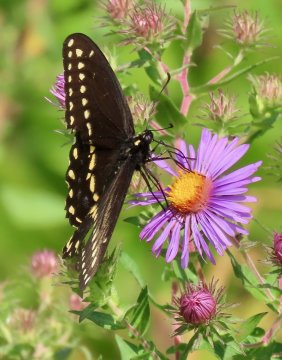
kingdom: Animalia
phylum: Arthropoda
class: Insecta
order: Lepidoptera
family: Papilionidae
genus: Papilio
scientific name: Papilio polyxenes
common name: Black Swallowtail
